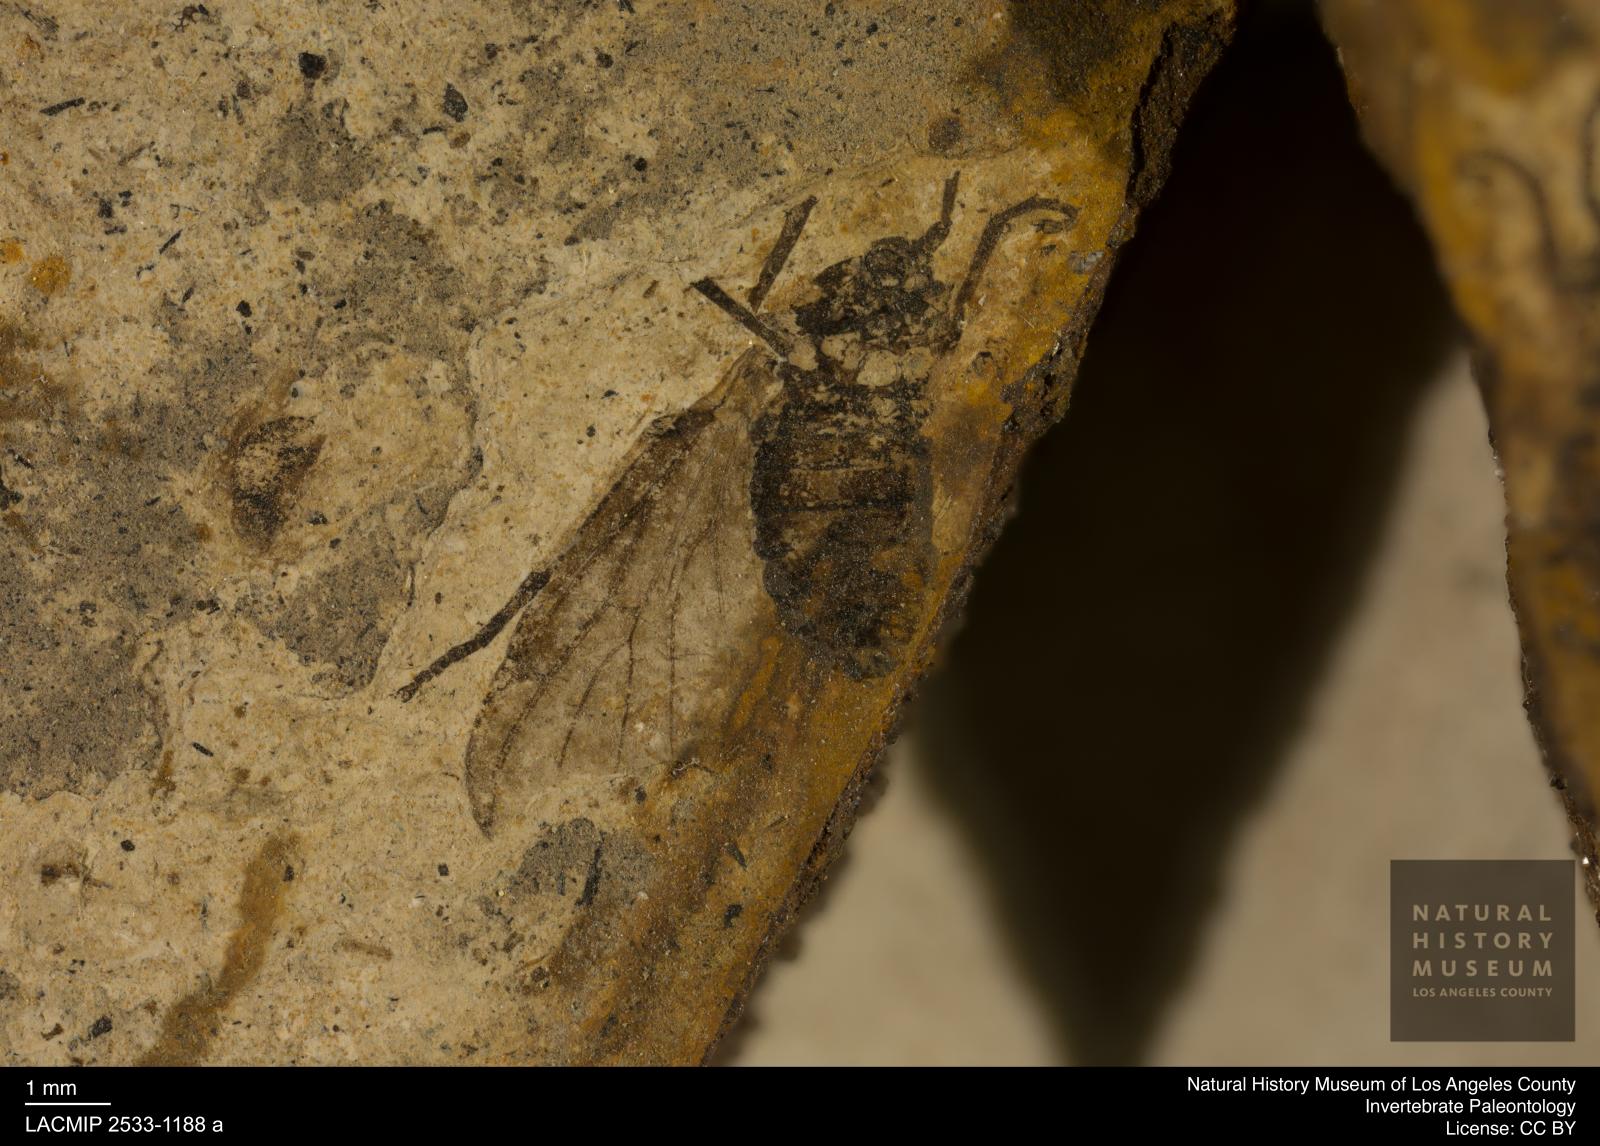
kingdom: Animalia
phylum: Arthropoda
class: Insecta
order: Diptera
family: Bibionidae
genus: Plecia
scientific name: Plecia stygia
